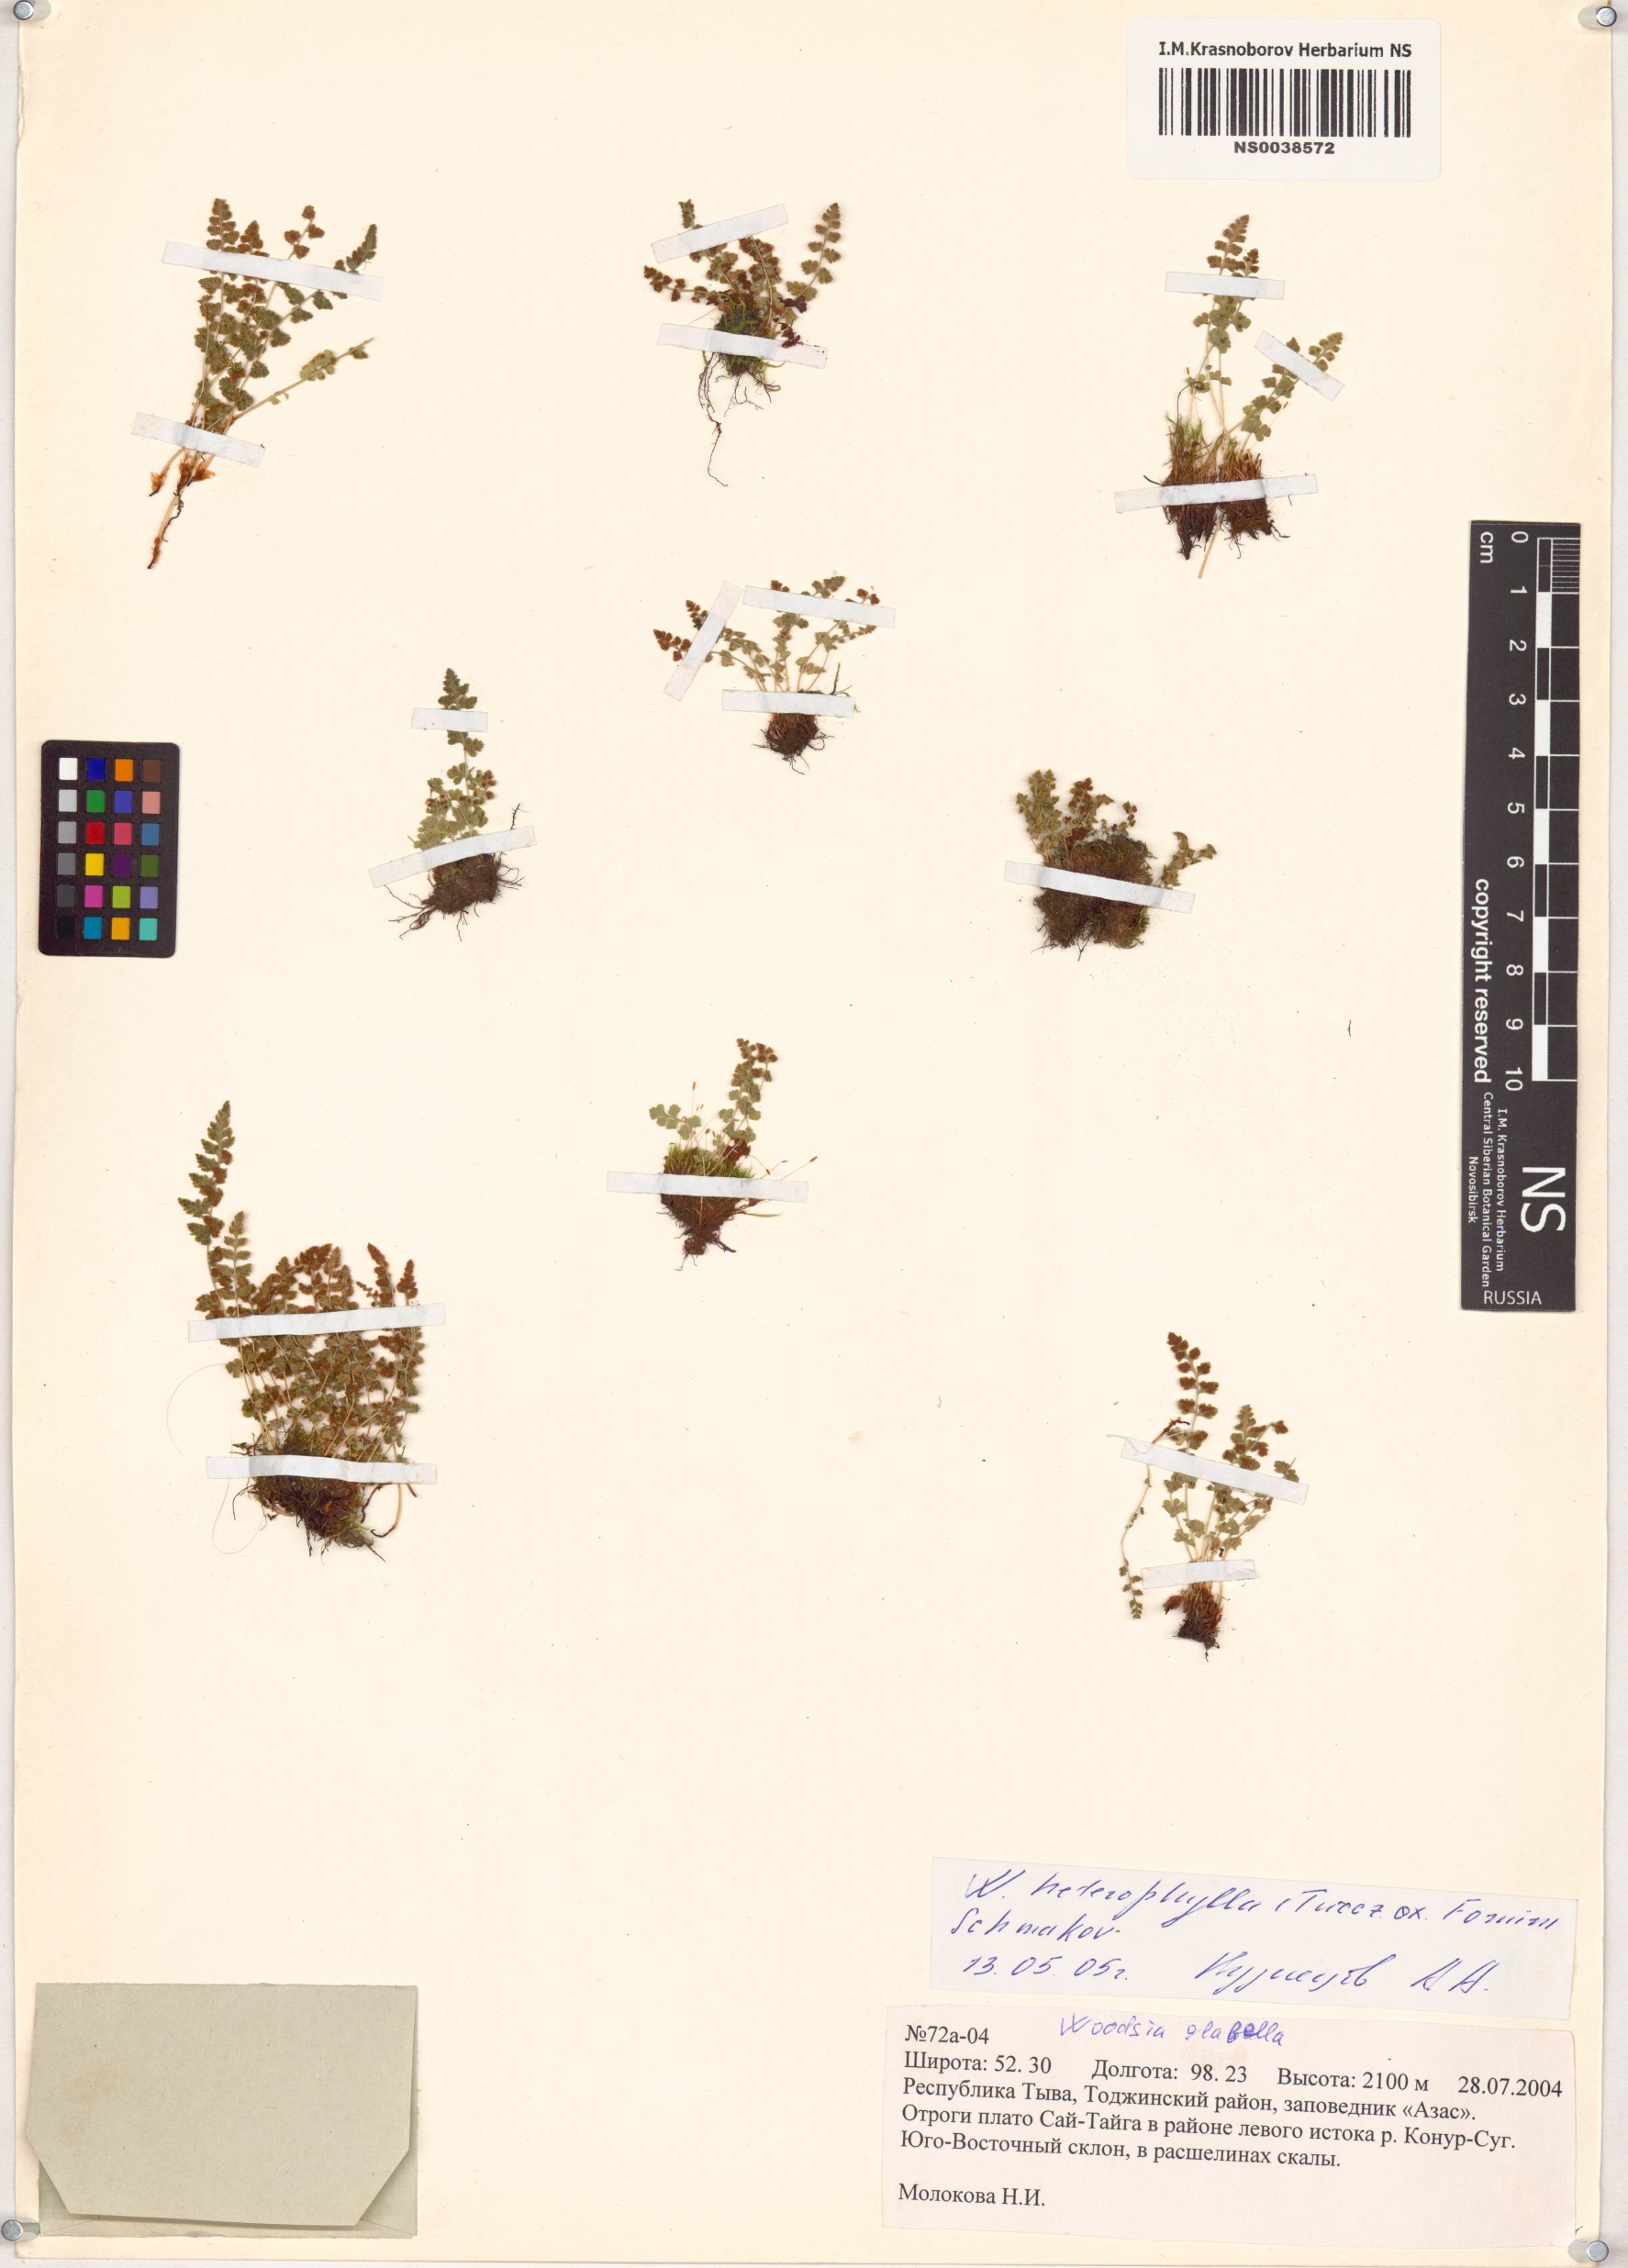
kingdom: Plantae
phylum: Tracheophyta
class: Polypodiopsida
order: Polypodiales
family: Woodsiaceae
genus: Woodsia
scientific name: Woodsia pulchella
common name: Graceful woodsia
